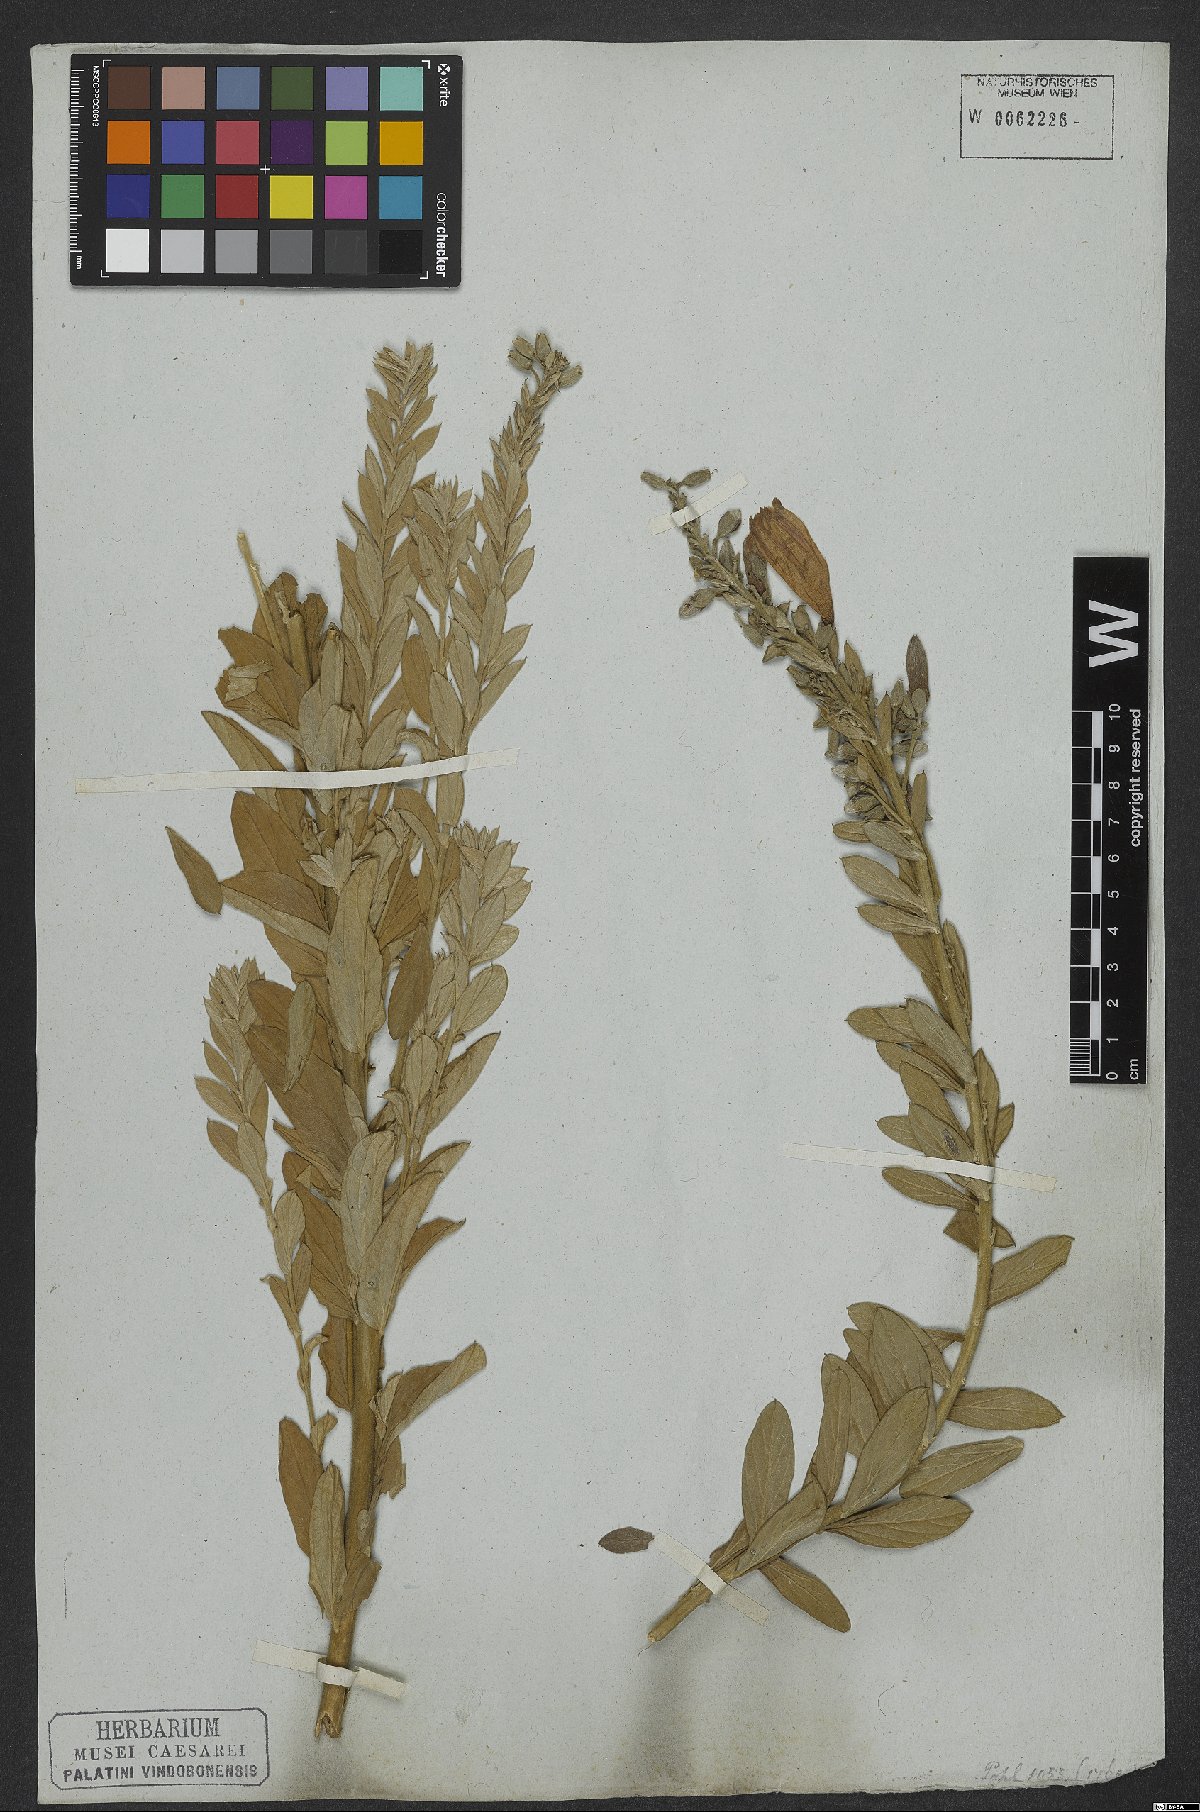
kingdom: Plantae
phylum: Tracheophyta
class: Magnoliopsida
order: Solanales
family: Convolvulaceae
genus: Ipomoea
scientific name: Ipomoea argyreia
